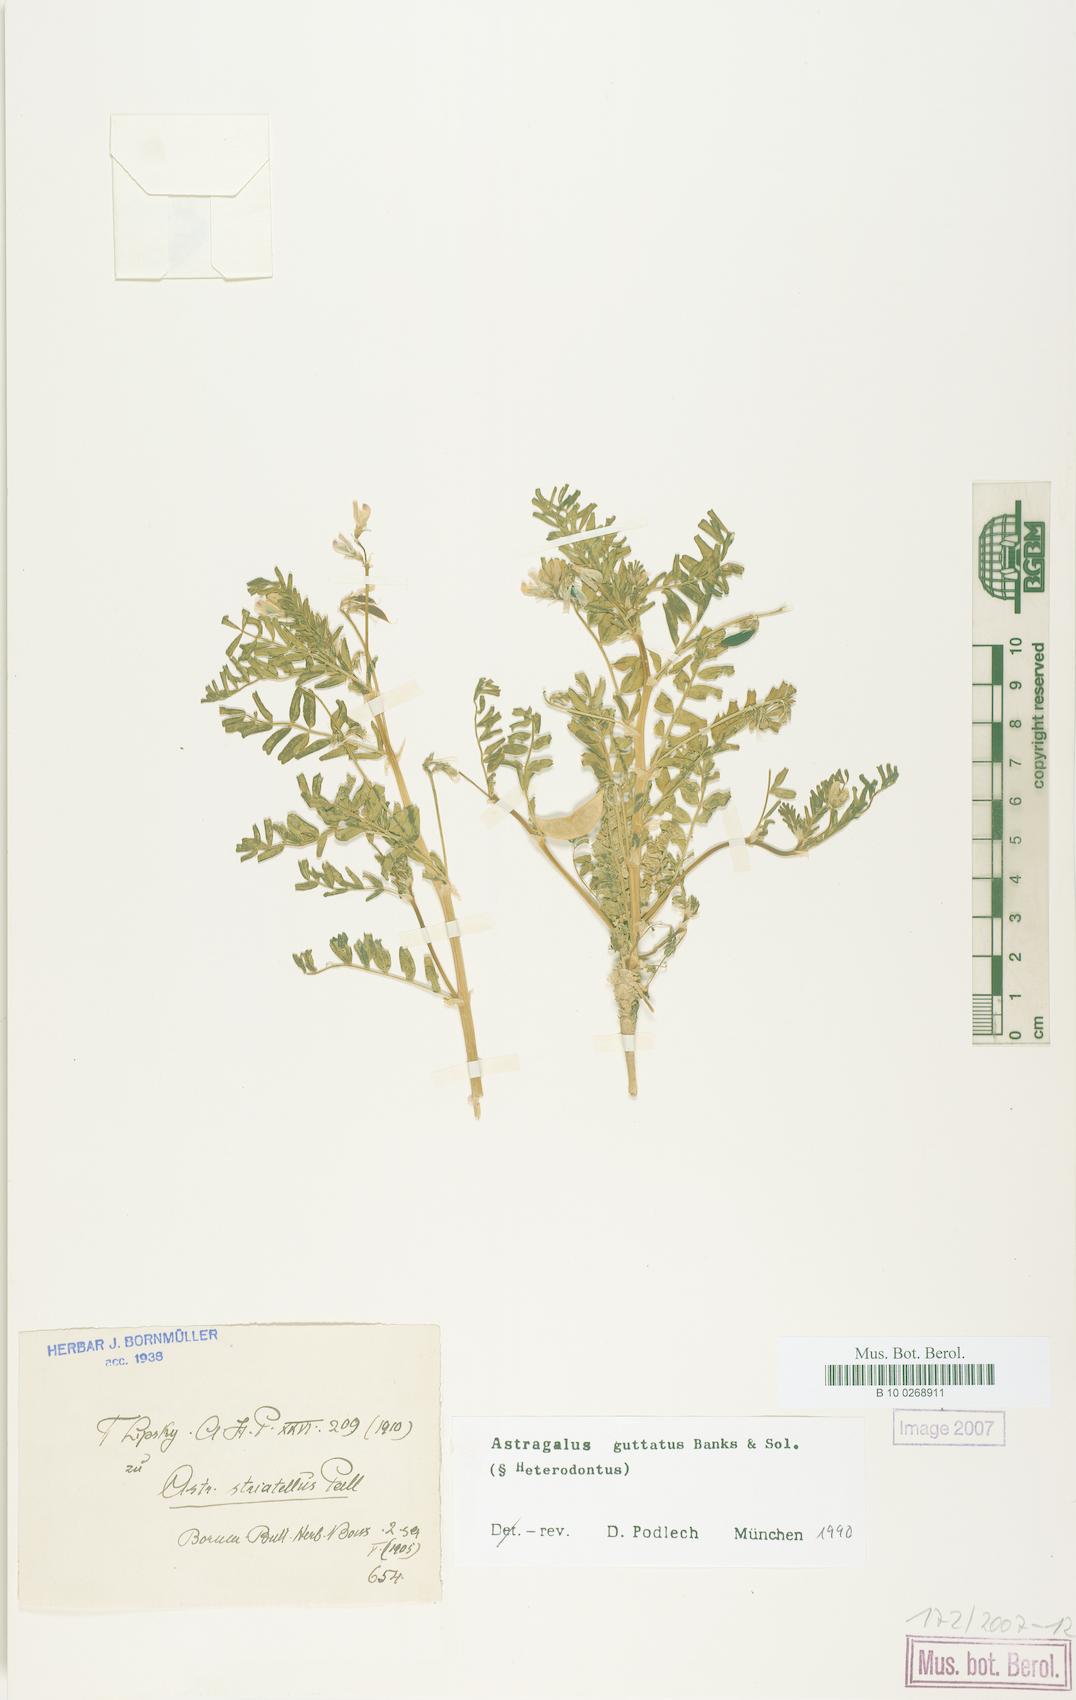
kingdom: Plantae
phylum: Tracheophyta
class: Magnoliopsida
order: Fabales
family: Fabaceae
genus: Astragalus
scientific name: Astragalus guttatus
